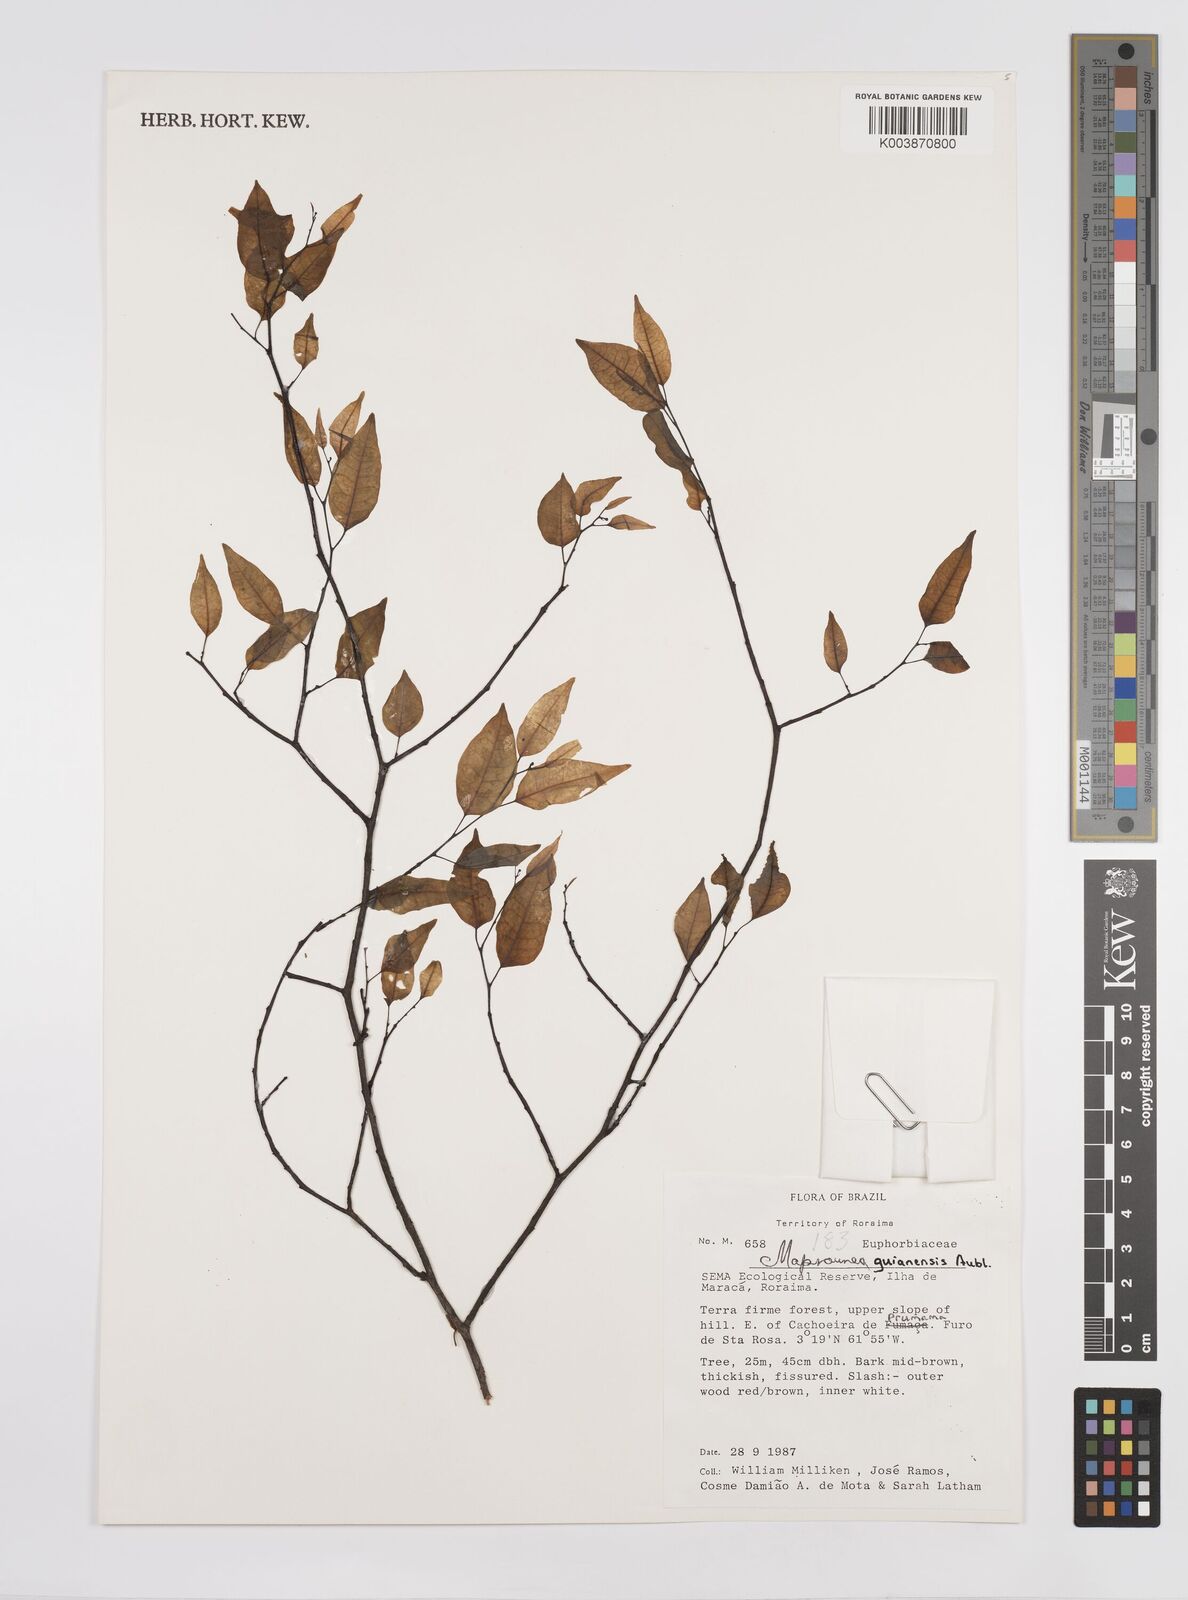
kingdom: Plantae
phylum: Tracheophyta
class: Magnoliopsida
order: Malpighiales
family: Euphorbiaceae
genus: Maprounea
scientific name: Maprounea guianensis
